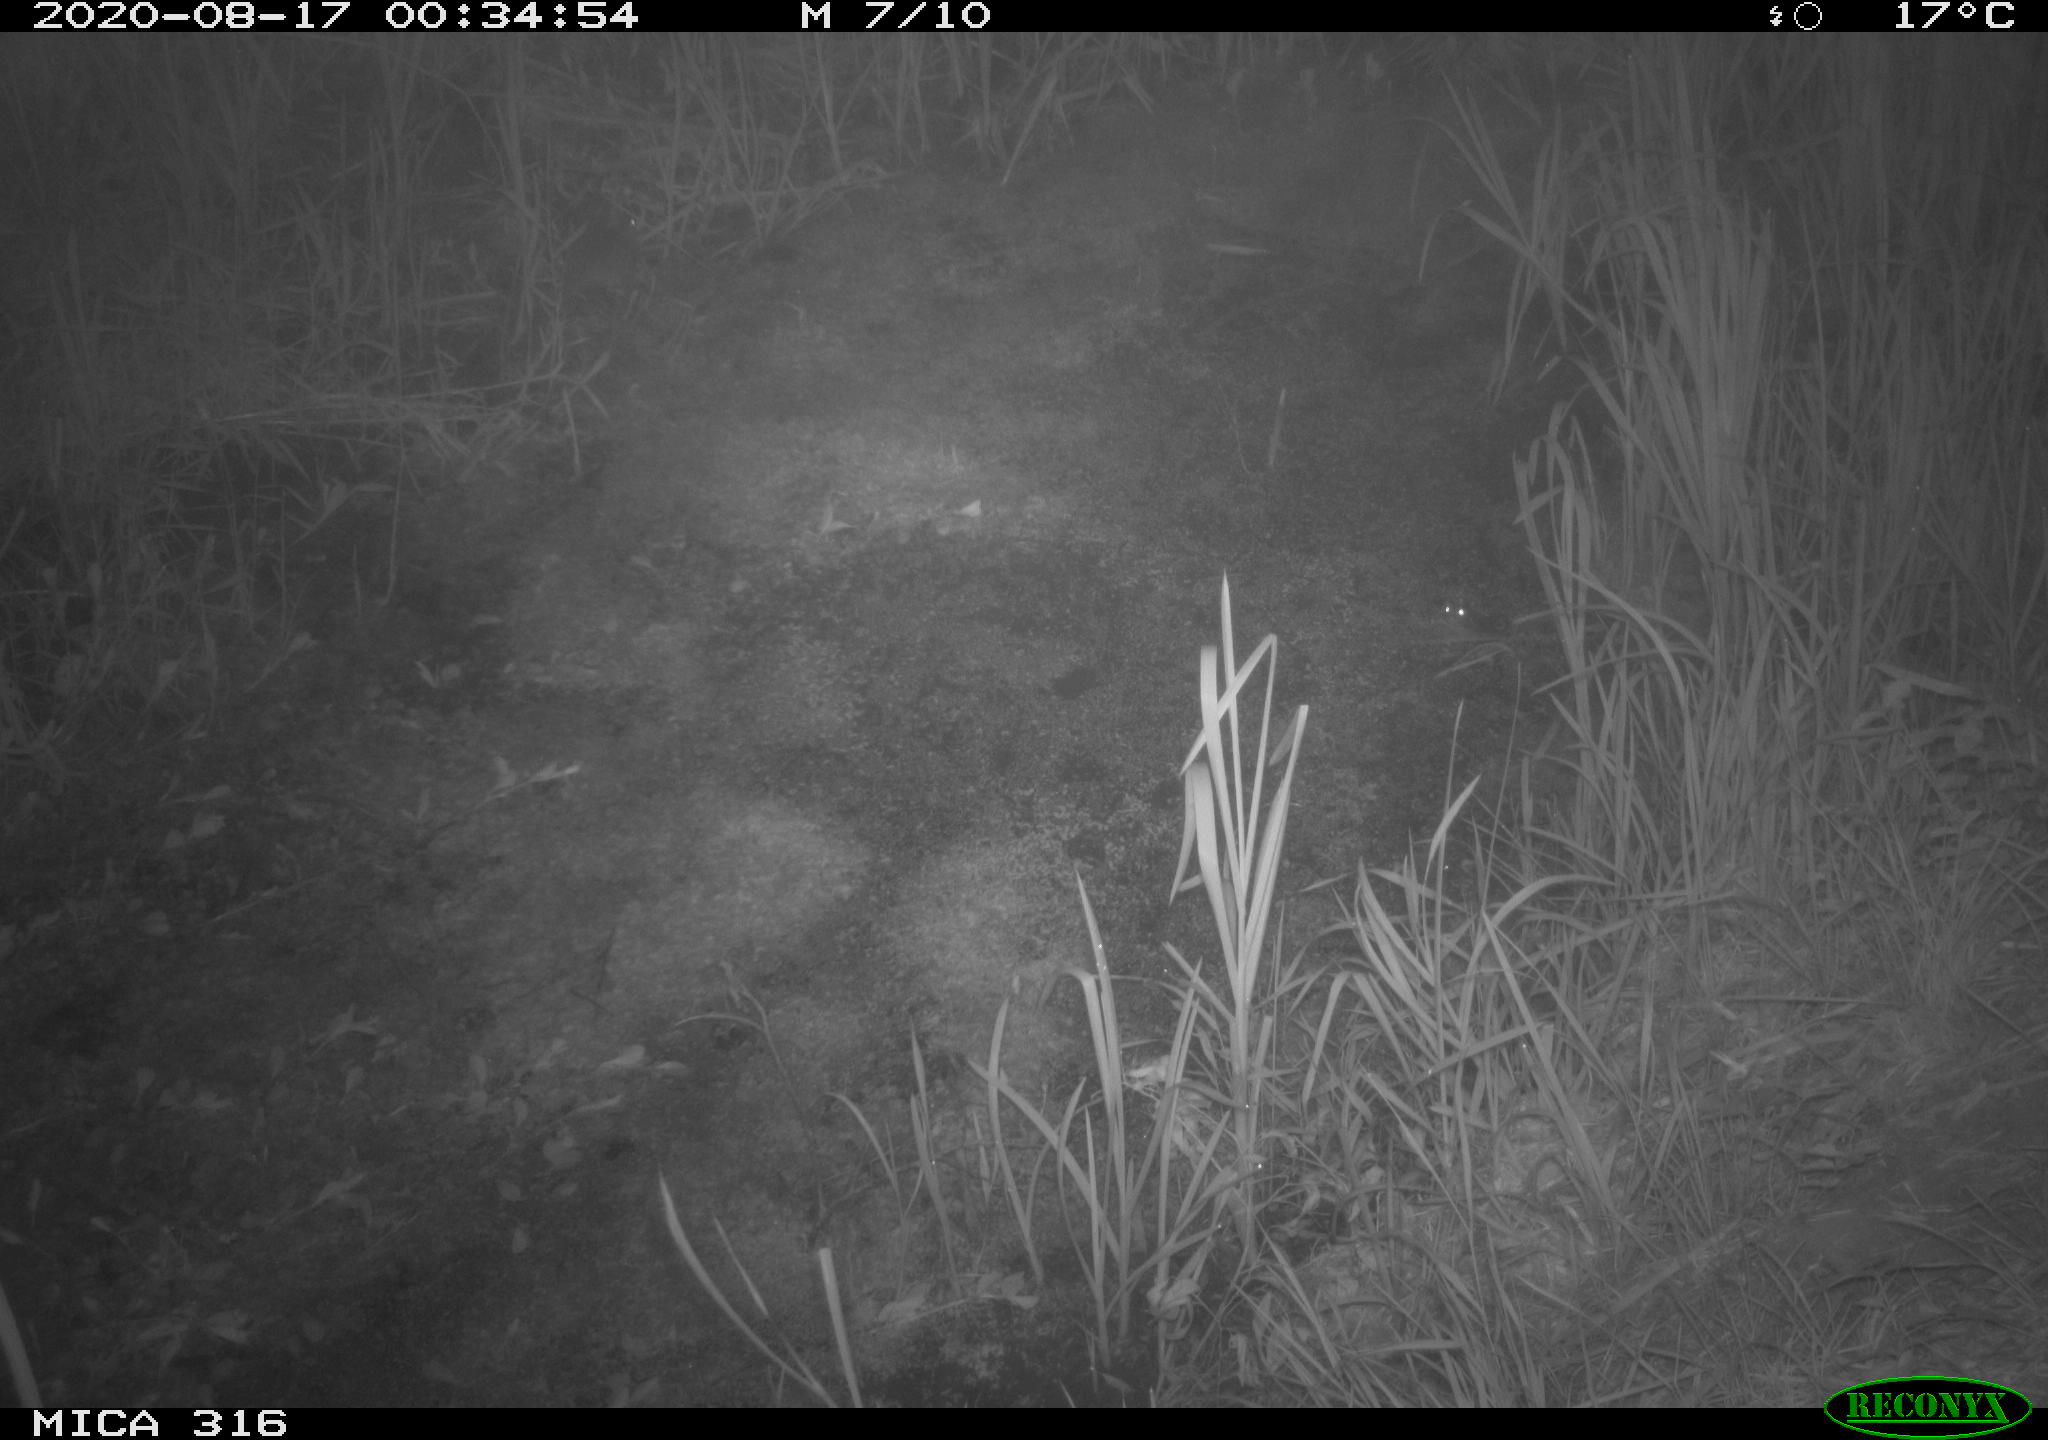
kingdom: Animalia
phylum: Chordata
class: Mammalia
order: Rodentia
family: Muridae
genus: Rattus
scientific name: Rattus norvegicus
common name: Brown rat
